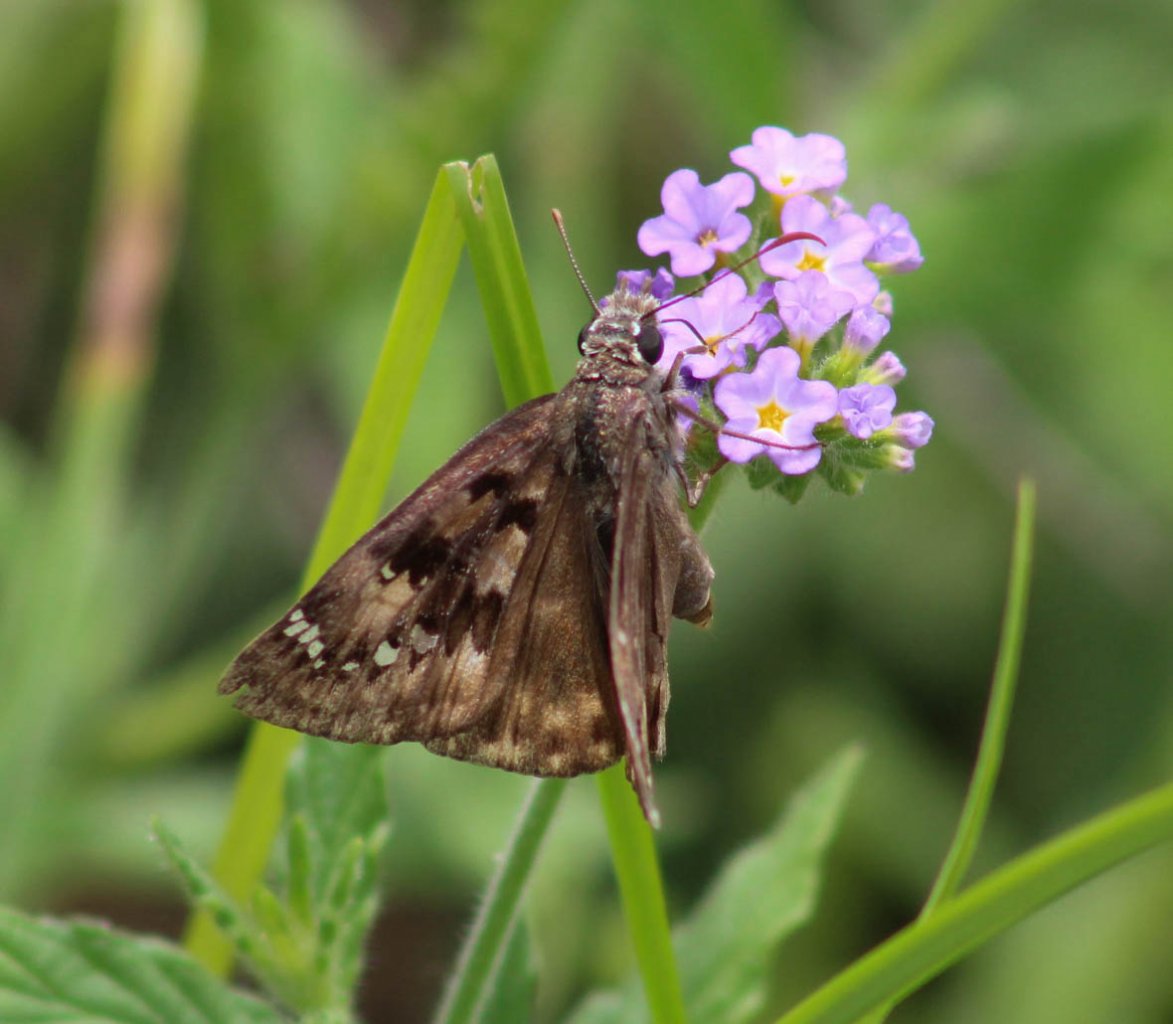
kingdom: Animalia
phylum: Arthropoda
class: Insecta
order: Lepidoptera
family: Hesperiidae
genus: Gesta
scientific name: Gesta
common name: Horace's Duskywing
